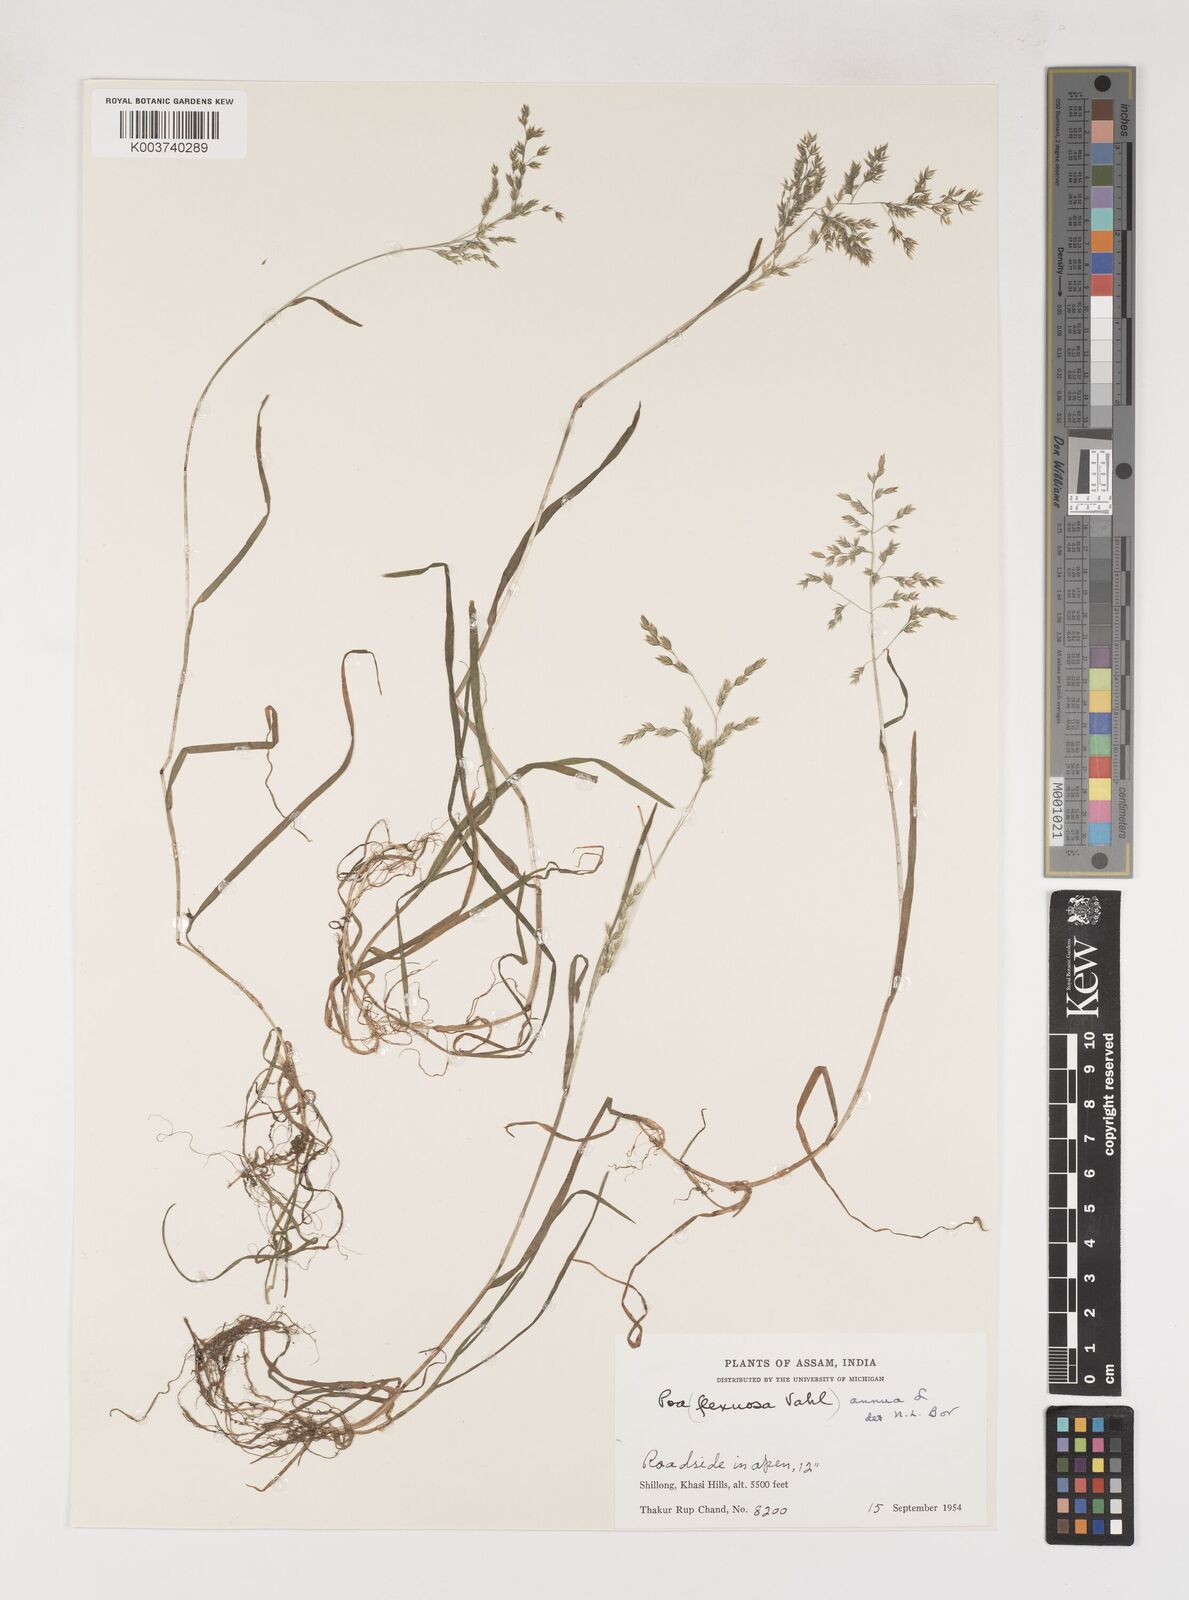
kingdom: Plantae
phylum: Tracheophyta
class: Liliopsida
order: Poales
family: Poaceae
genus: Poa
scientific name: Poa annua
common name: Annual bluegrass
